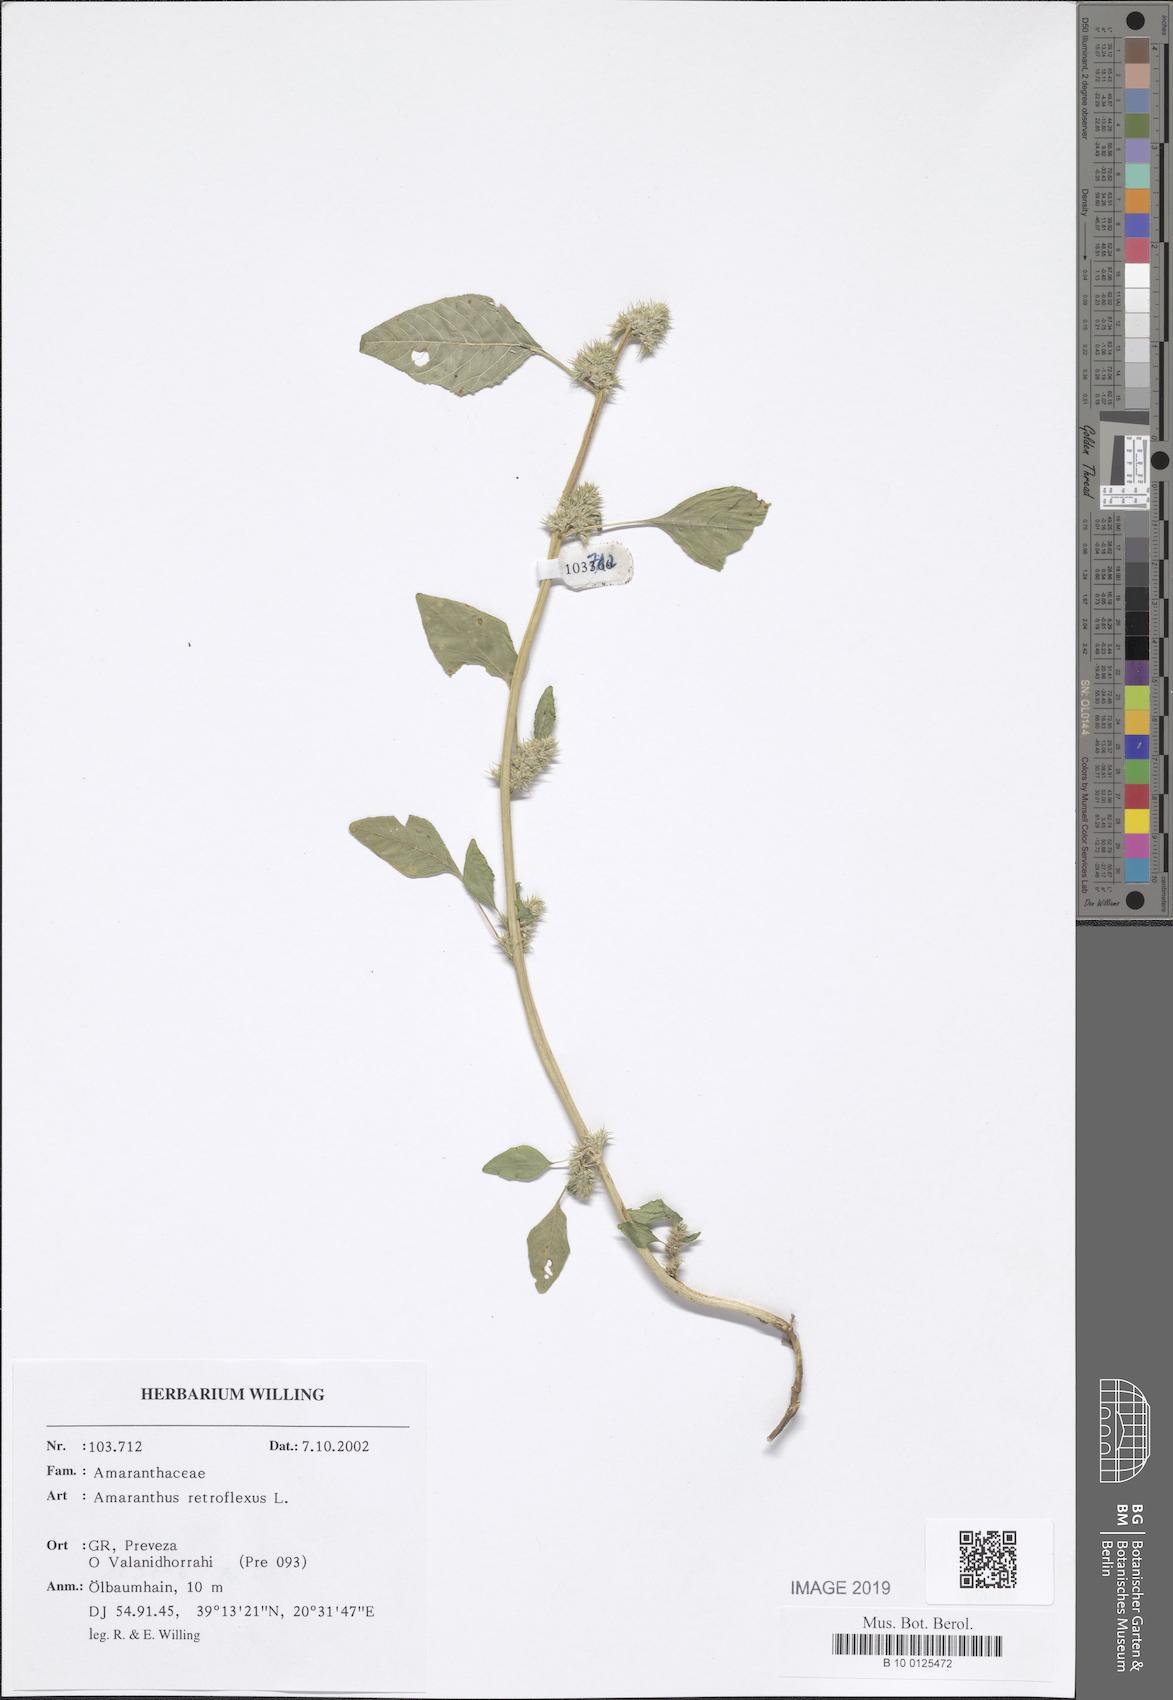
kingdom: Plantae
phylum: Tracheophyta
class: Magnoliopsida
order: Caryophyllales
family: Amaranthaceae
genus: Amaranthus
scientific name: Amaranthus retroflexus
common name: Redroot amaranth
